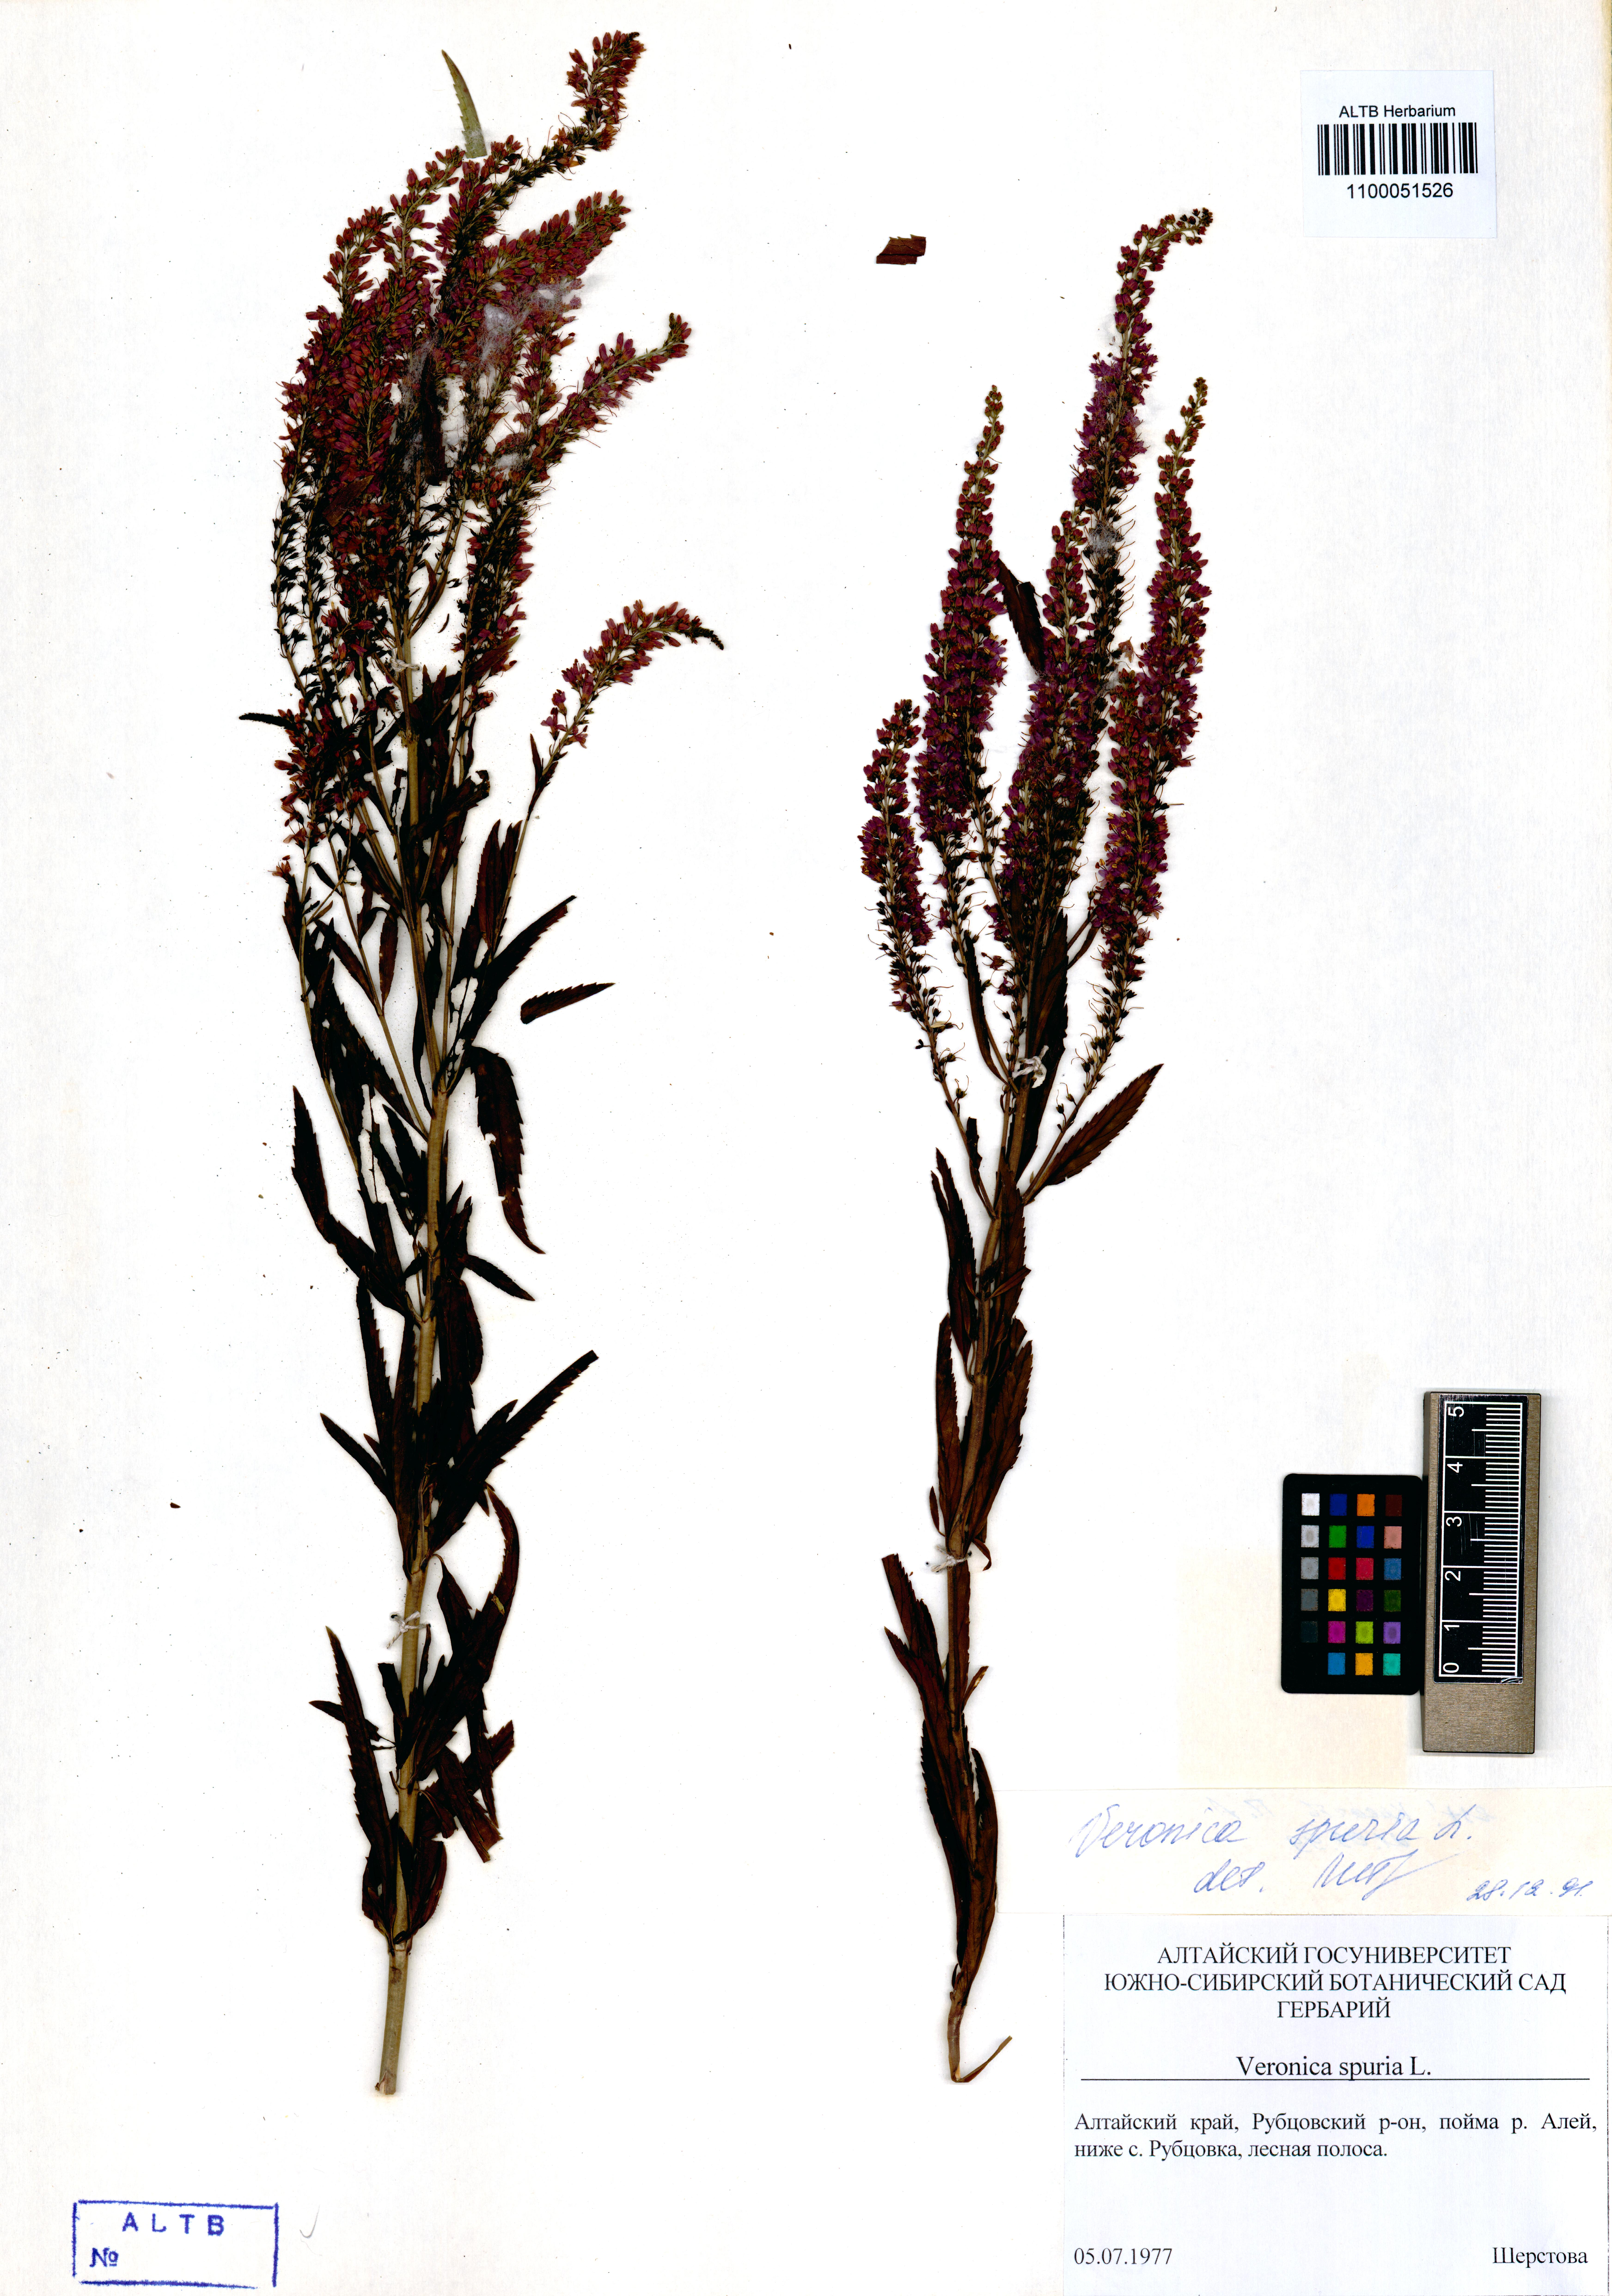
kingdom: Plantae
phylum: Tracheophyta
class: Magnoliopsida
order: Lamiales
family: Plantaginaceae
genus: Veronica
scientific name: Veronica spuria
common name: Bastard speedwell
